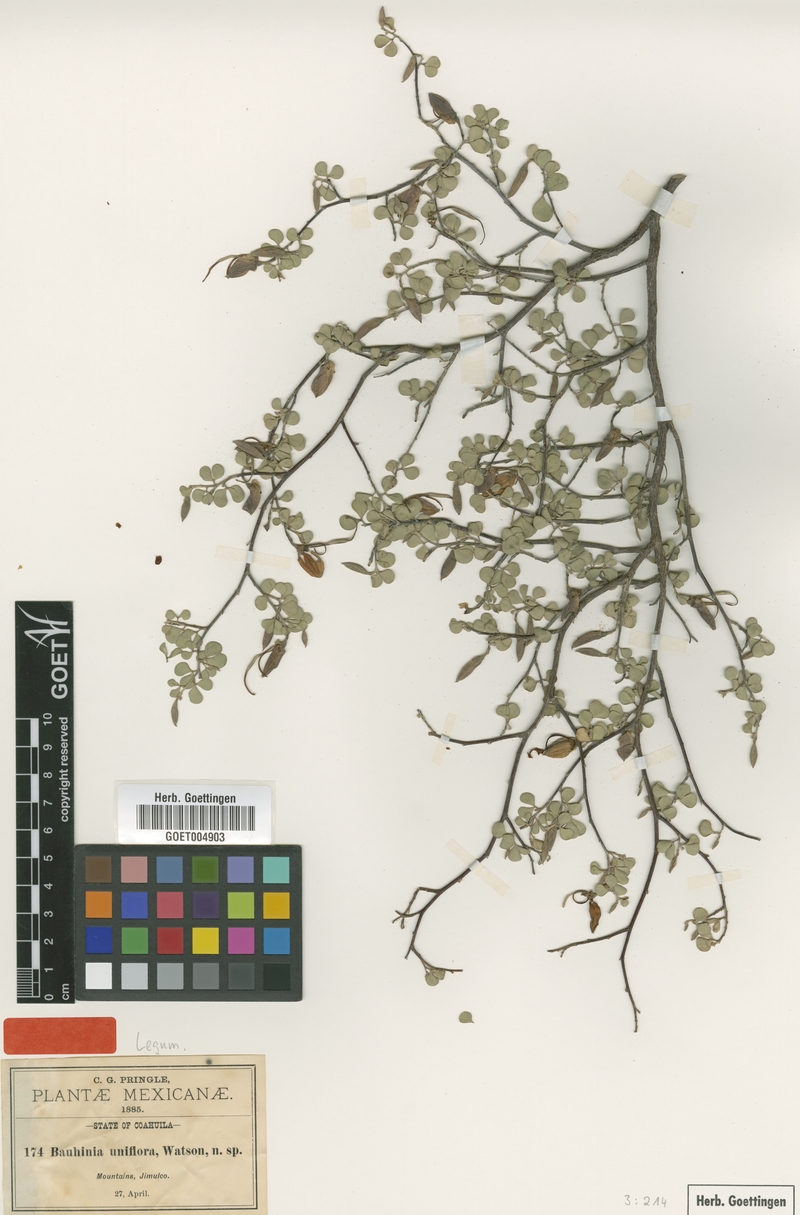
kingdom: Plantae
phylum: Tracheophyta
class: Magnoliopsida
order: Fabales
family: Fabaceae
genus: Bauhinia
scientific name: Bauhinia ramosissima
